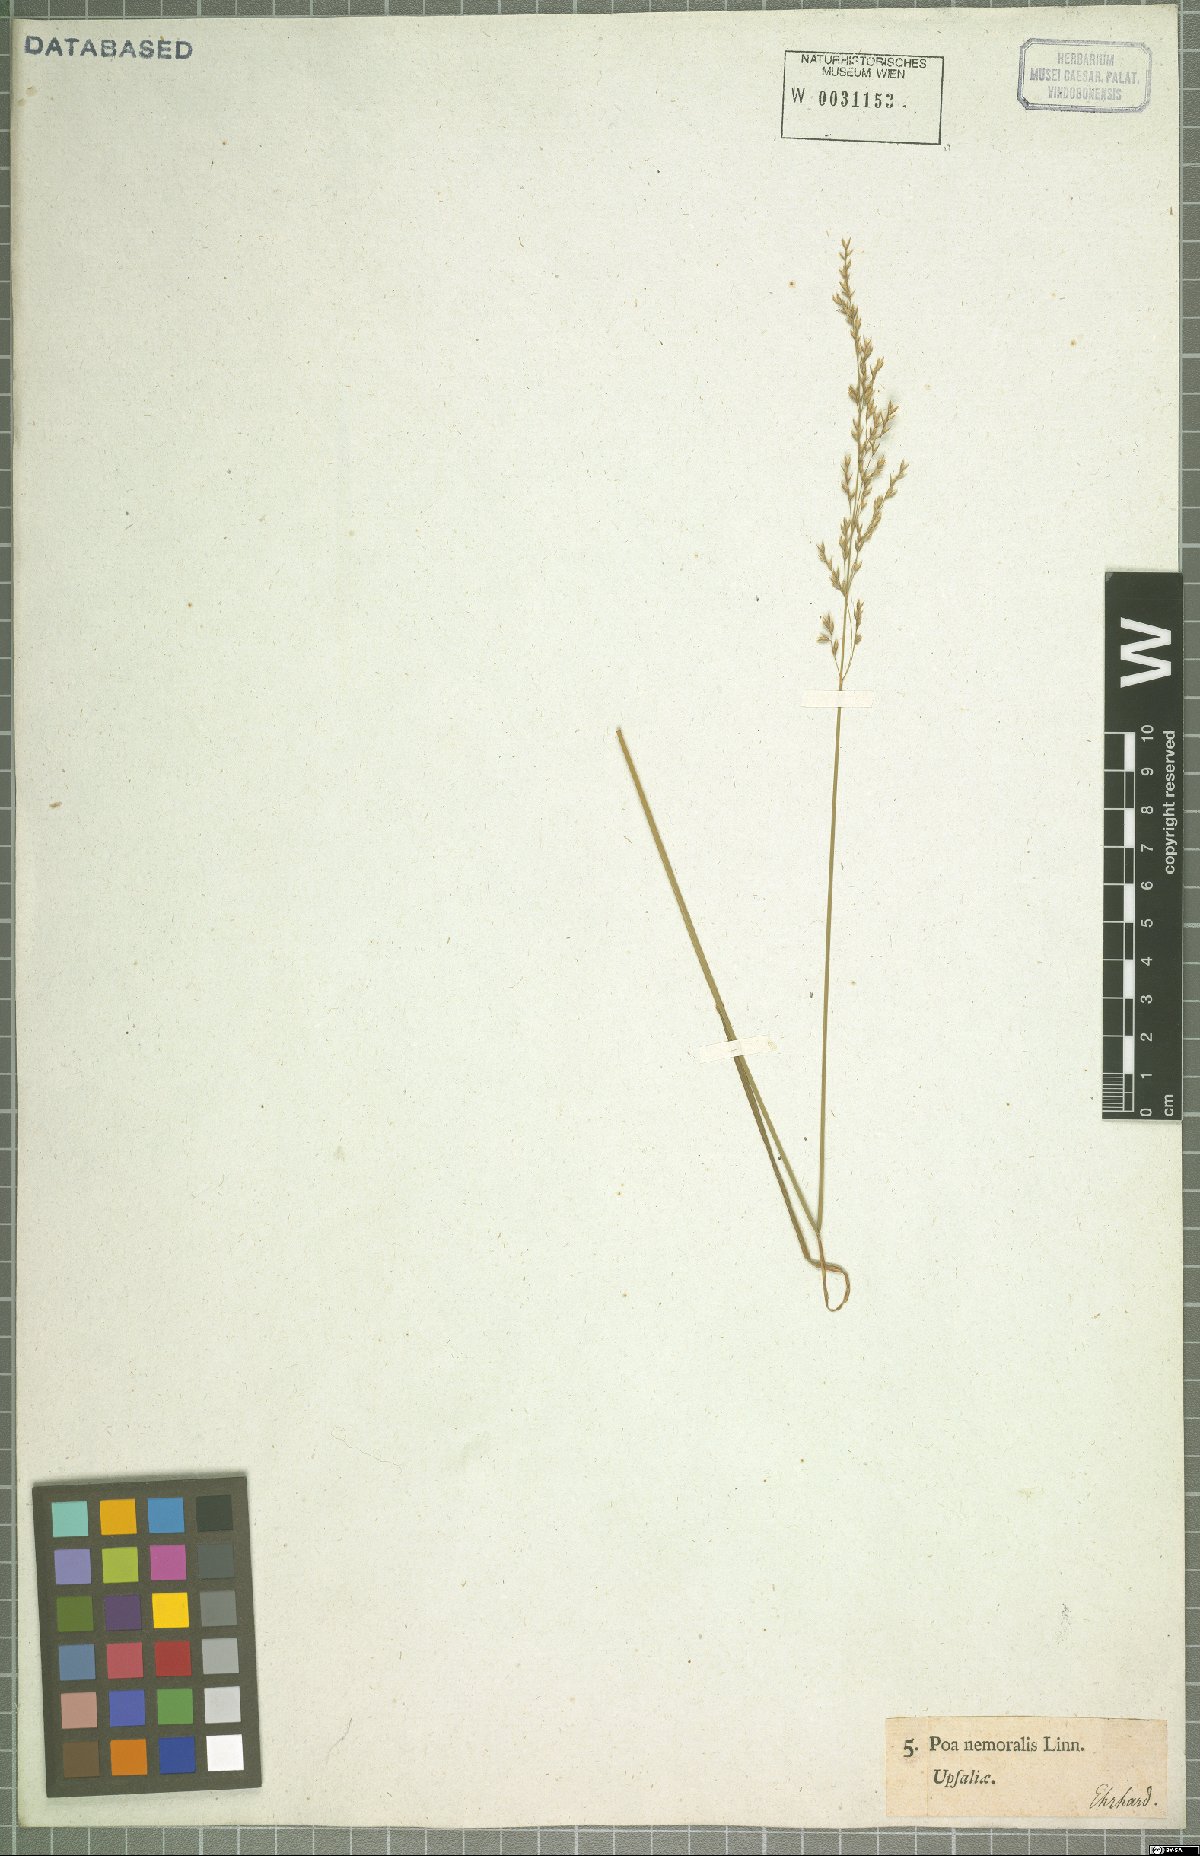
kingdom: Plantae
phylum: Tracheophyta
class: Liliopsida
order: Poales
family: Poaceae
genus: Poa
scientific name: Poa nemoralis
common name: Wood bluegrass
